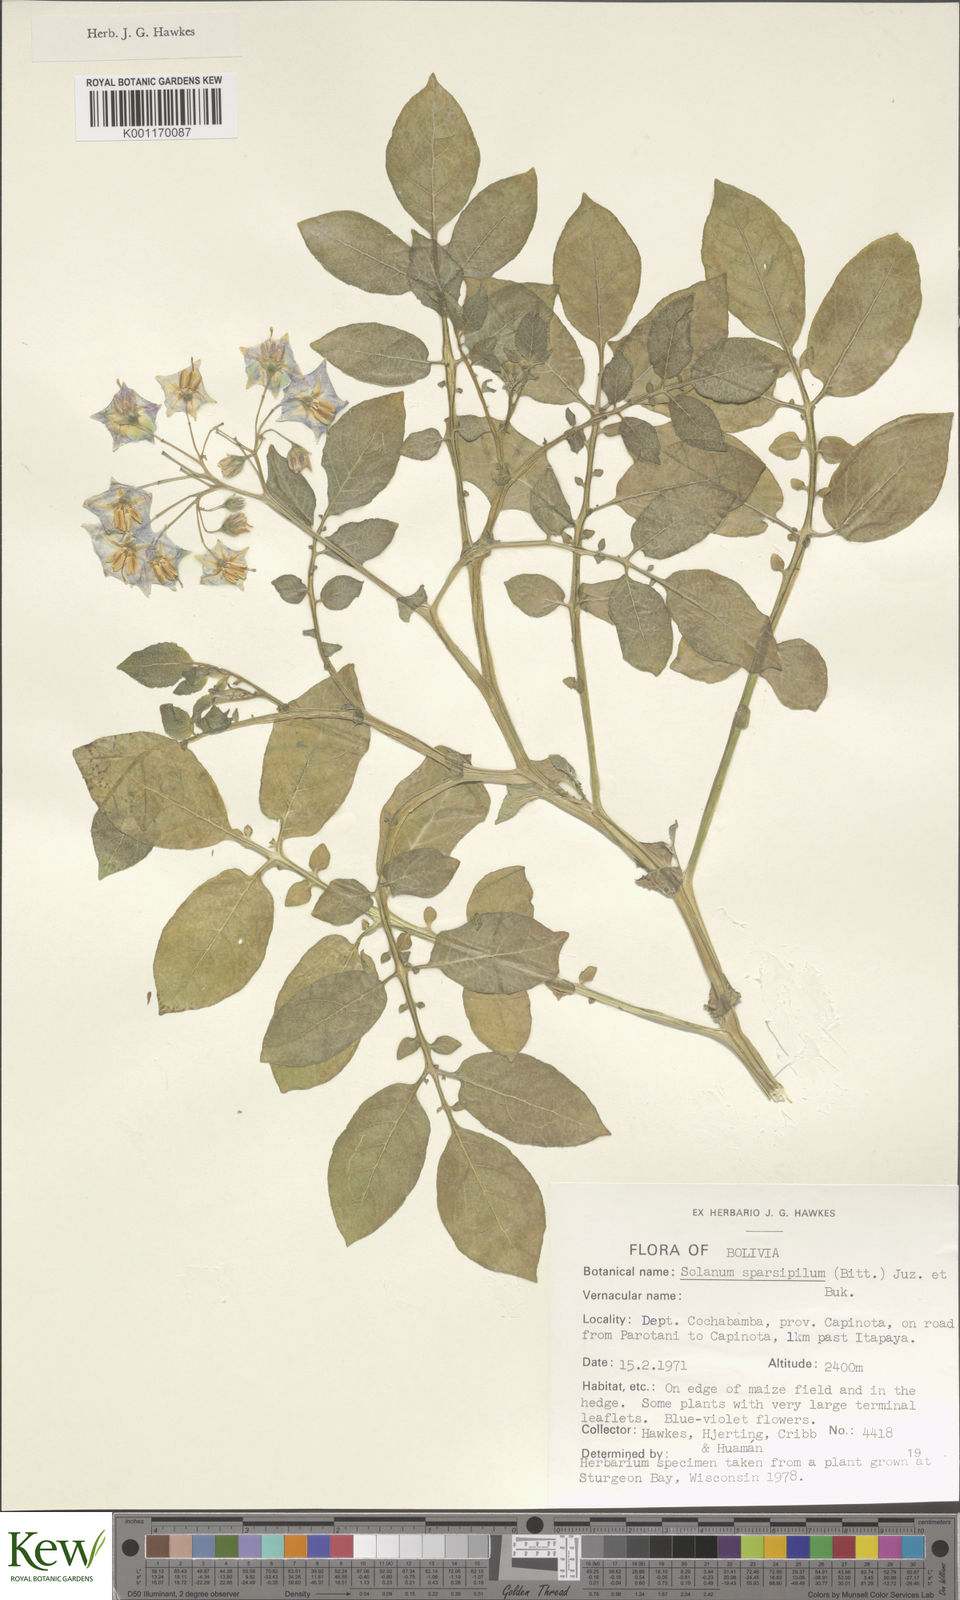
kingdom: Plantae
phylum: Tracheophyta
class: Magnoliopsida
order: Solanales
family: Solanaceae
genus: Solanum
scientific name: Solanum brevicaule
